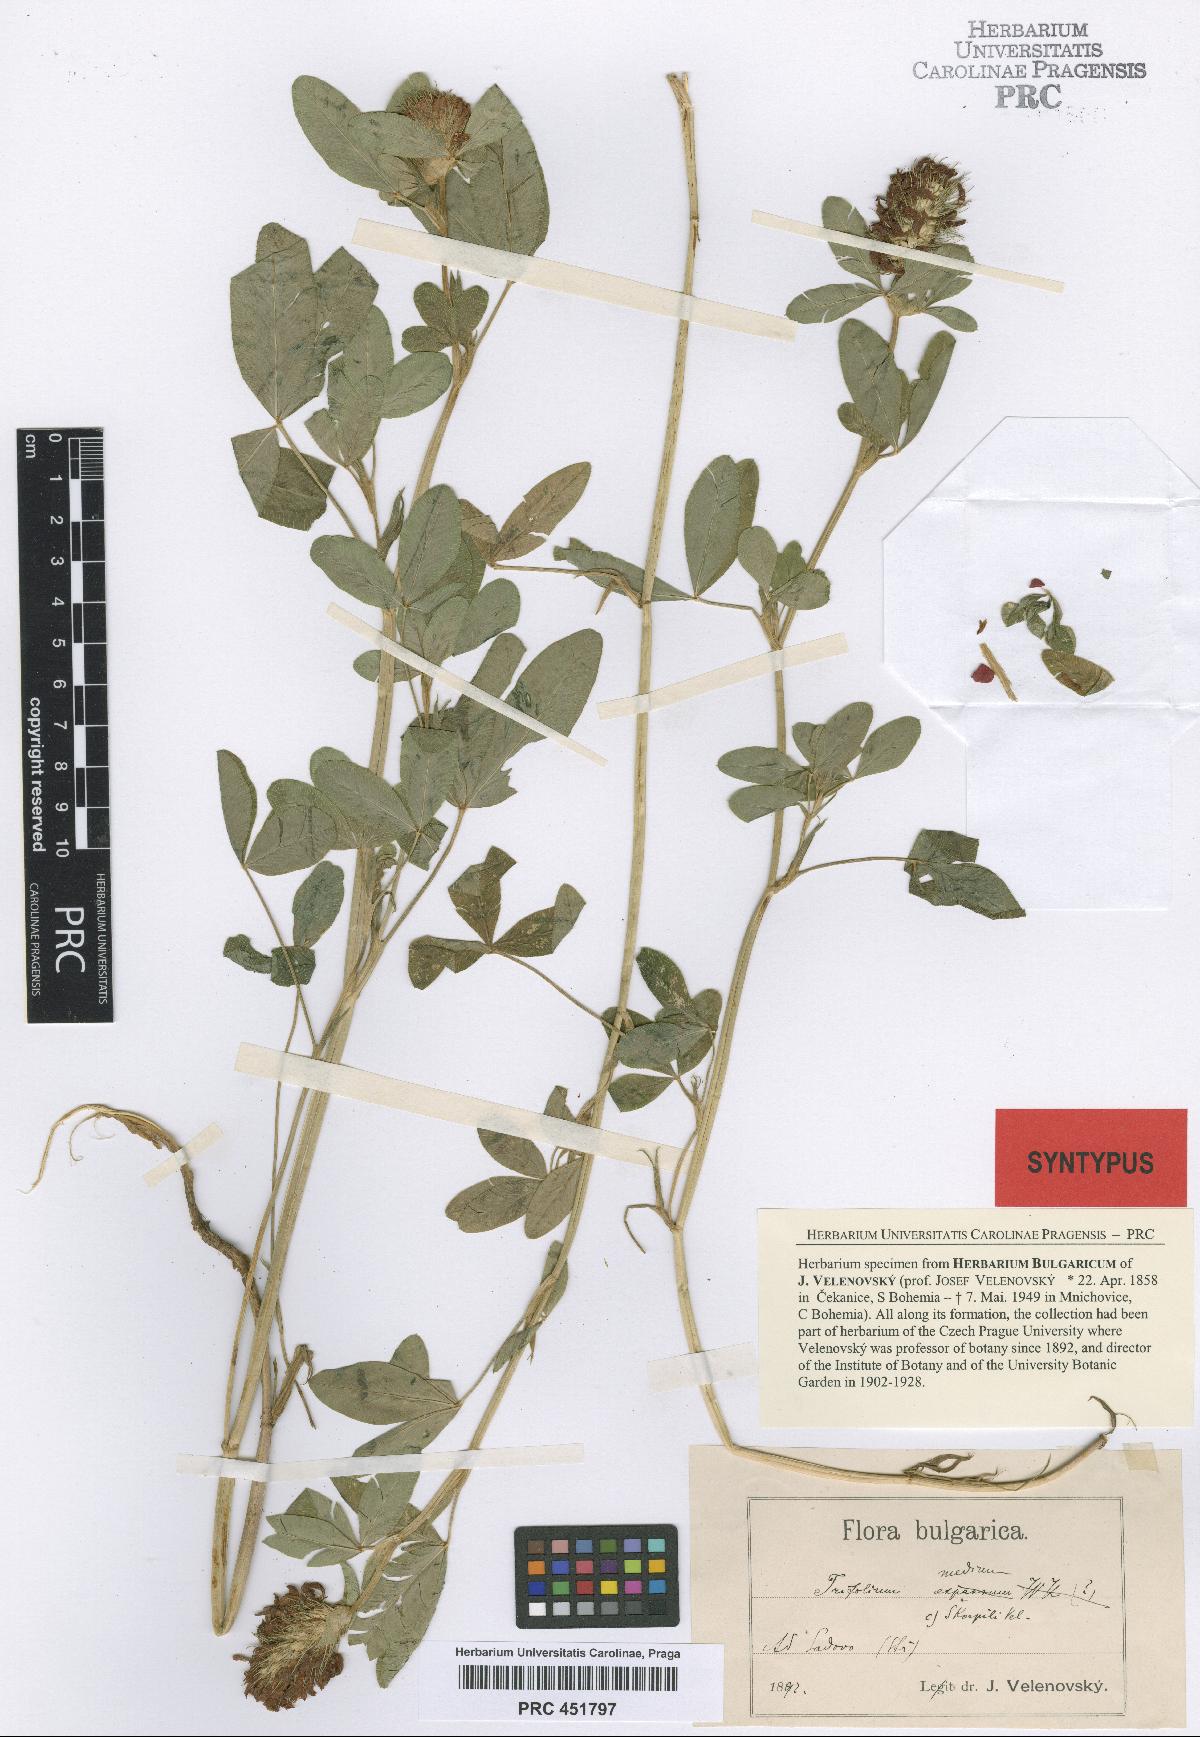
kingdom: Plantae
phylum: Tracheophyta
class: Magnoliopsida
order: Fabales
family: Fabaceae
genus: Trifolium
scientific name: Trifolium medium
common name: Zigzag clover
